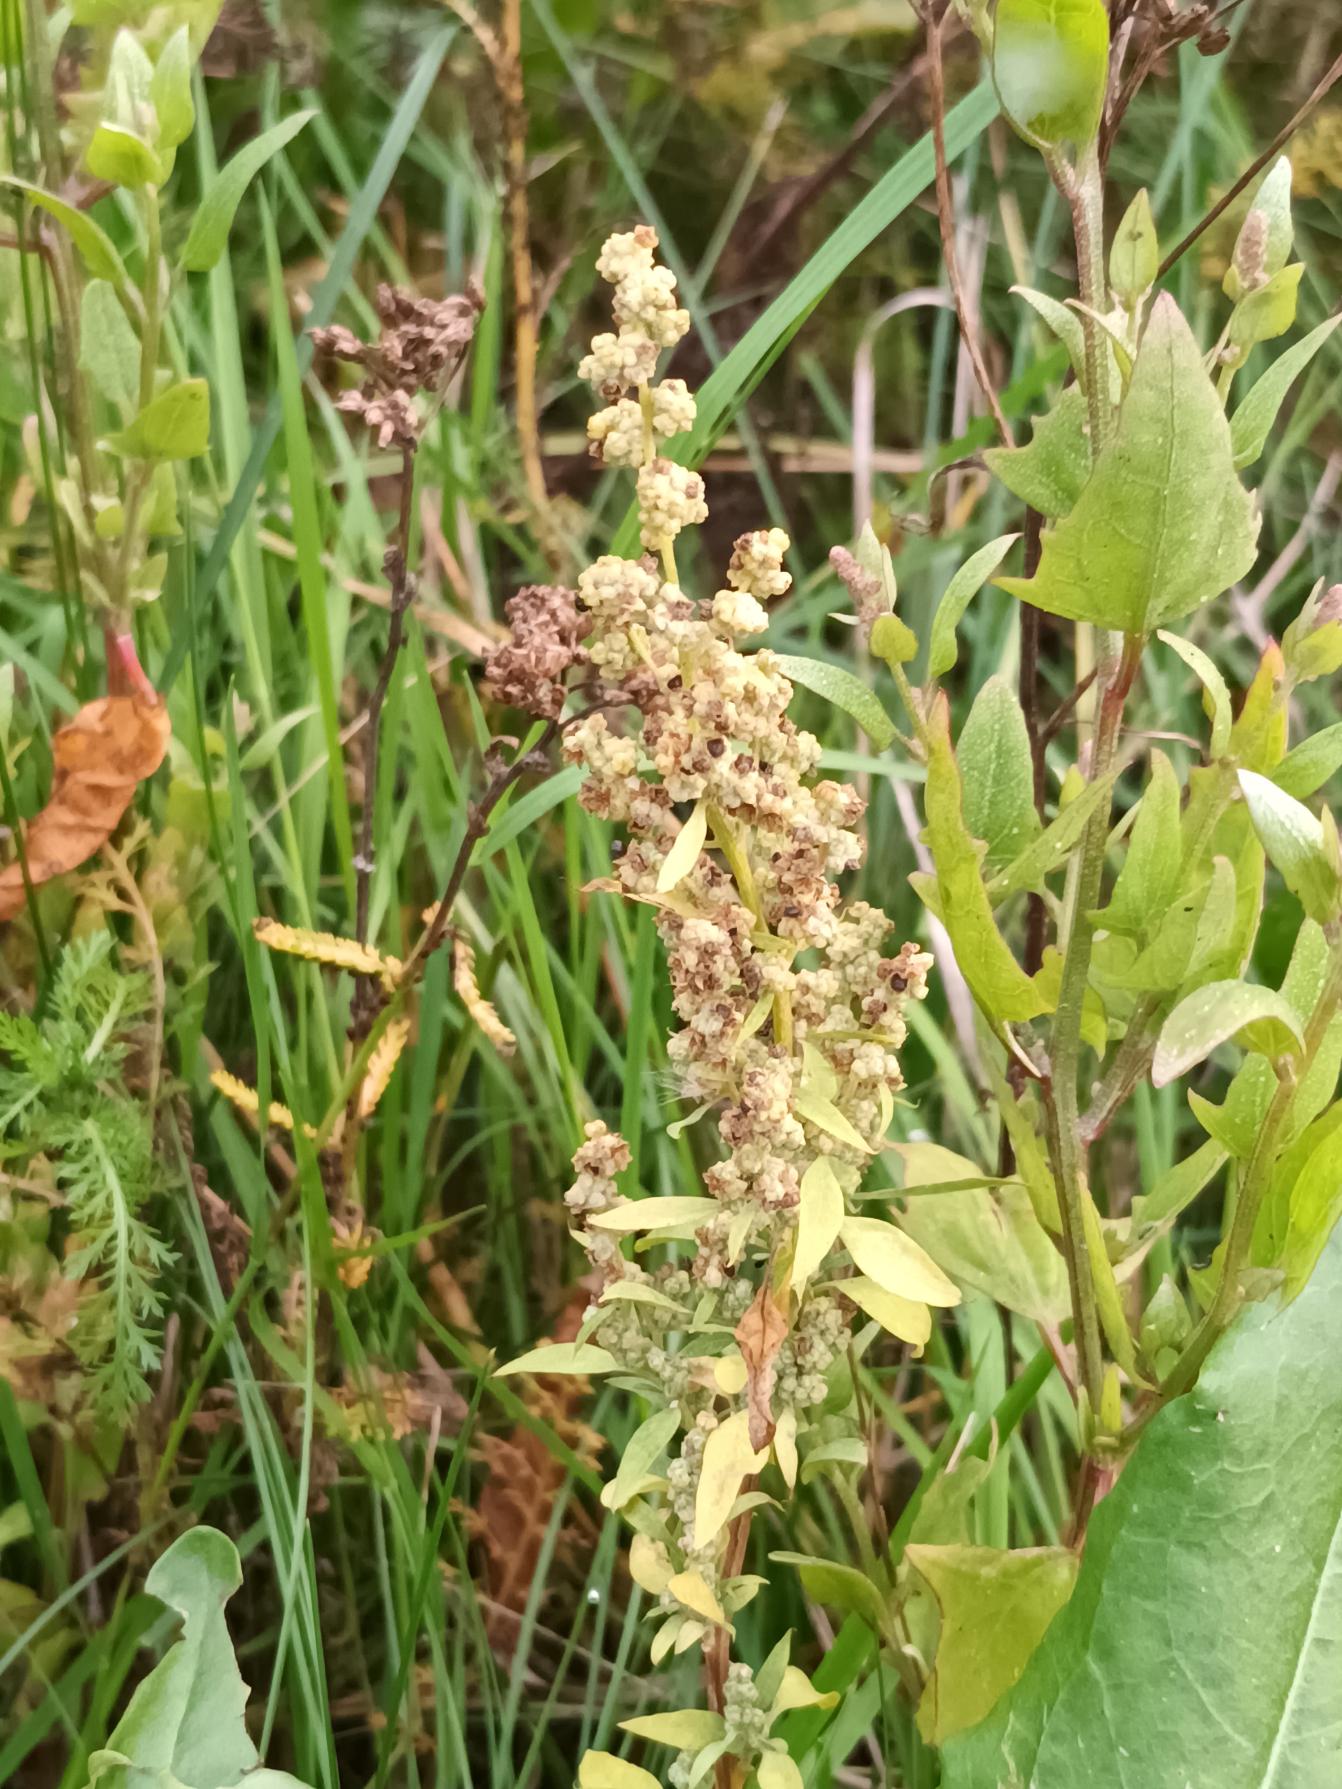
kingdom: Plantae
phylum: Tracheophyta
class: Magnoliopsida
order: Caryophyllales
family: Amaranthaceae
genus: Chenopodium
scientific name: Chenopodium album
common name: Hvidmelet gåsefod
